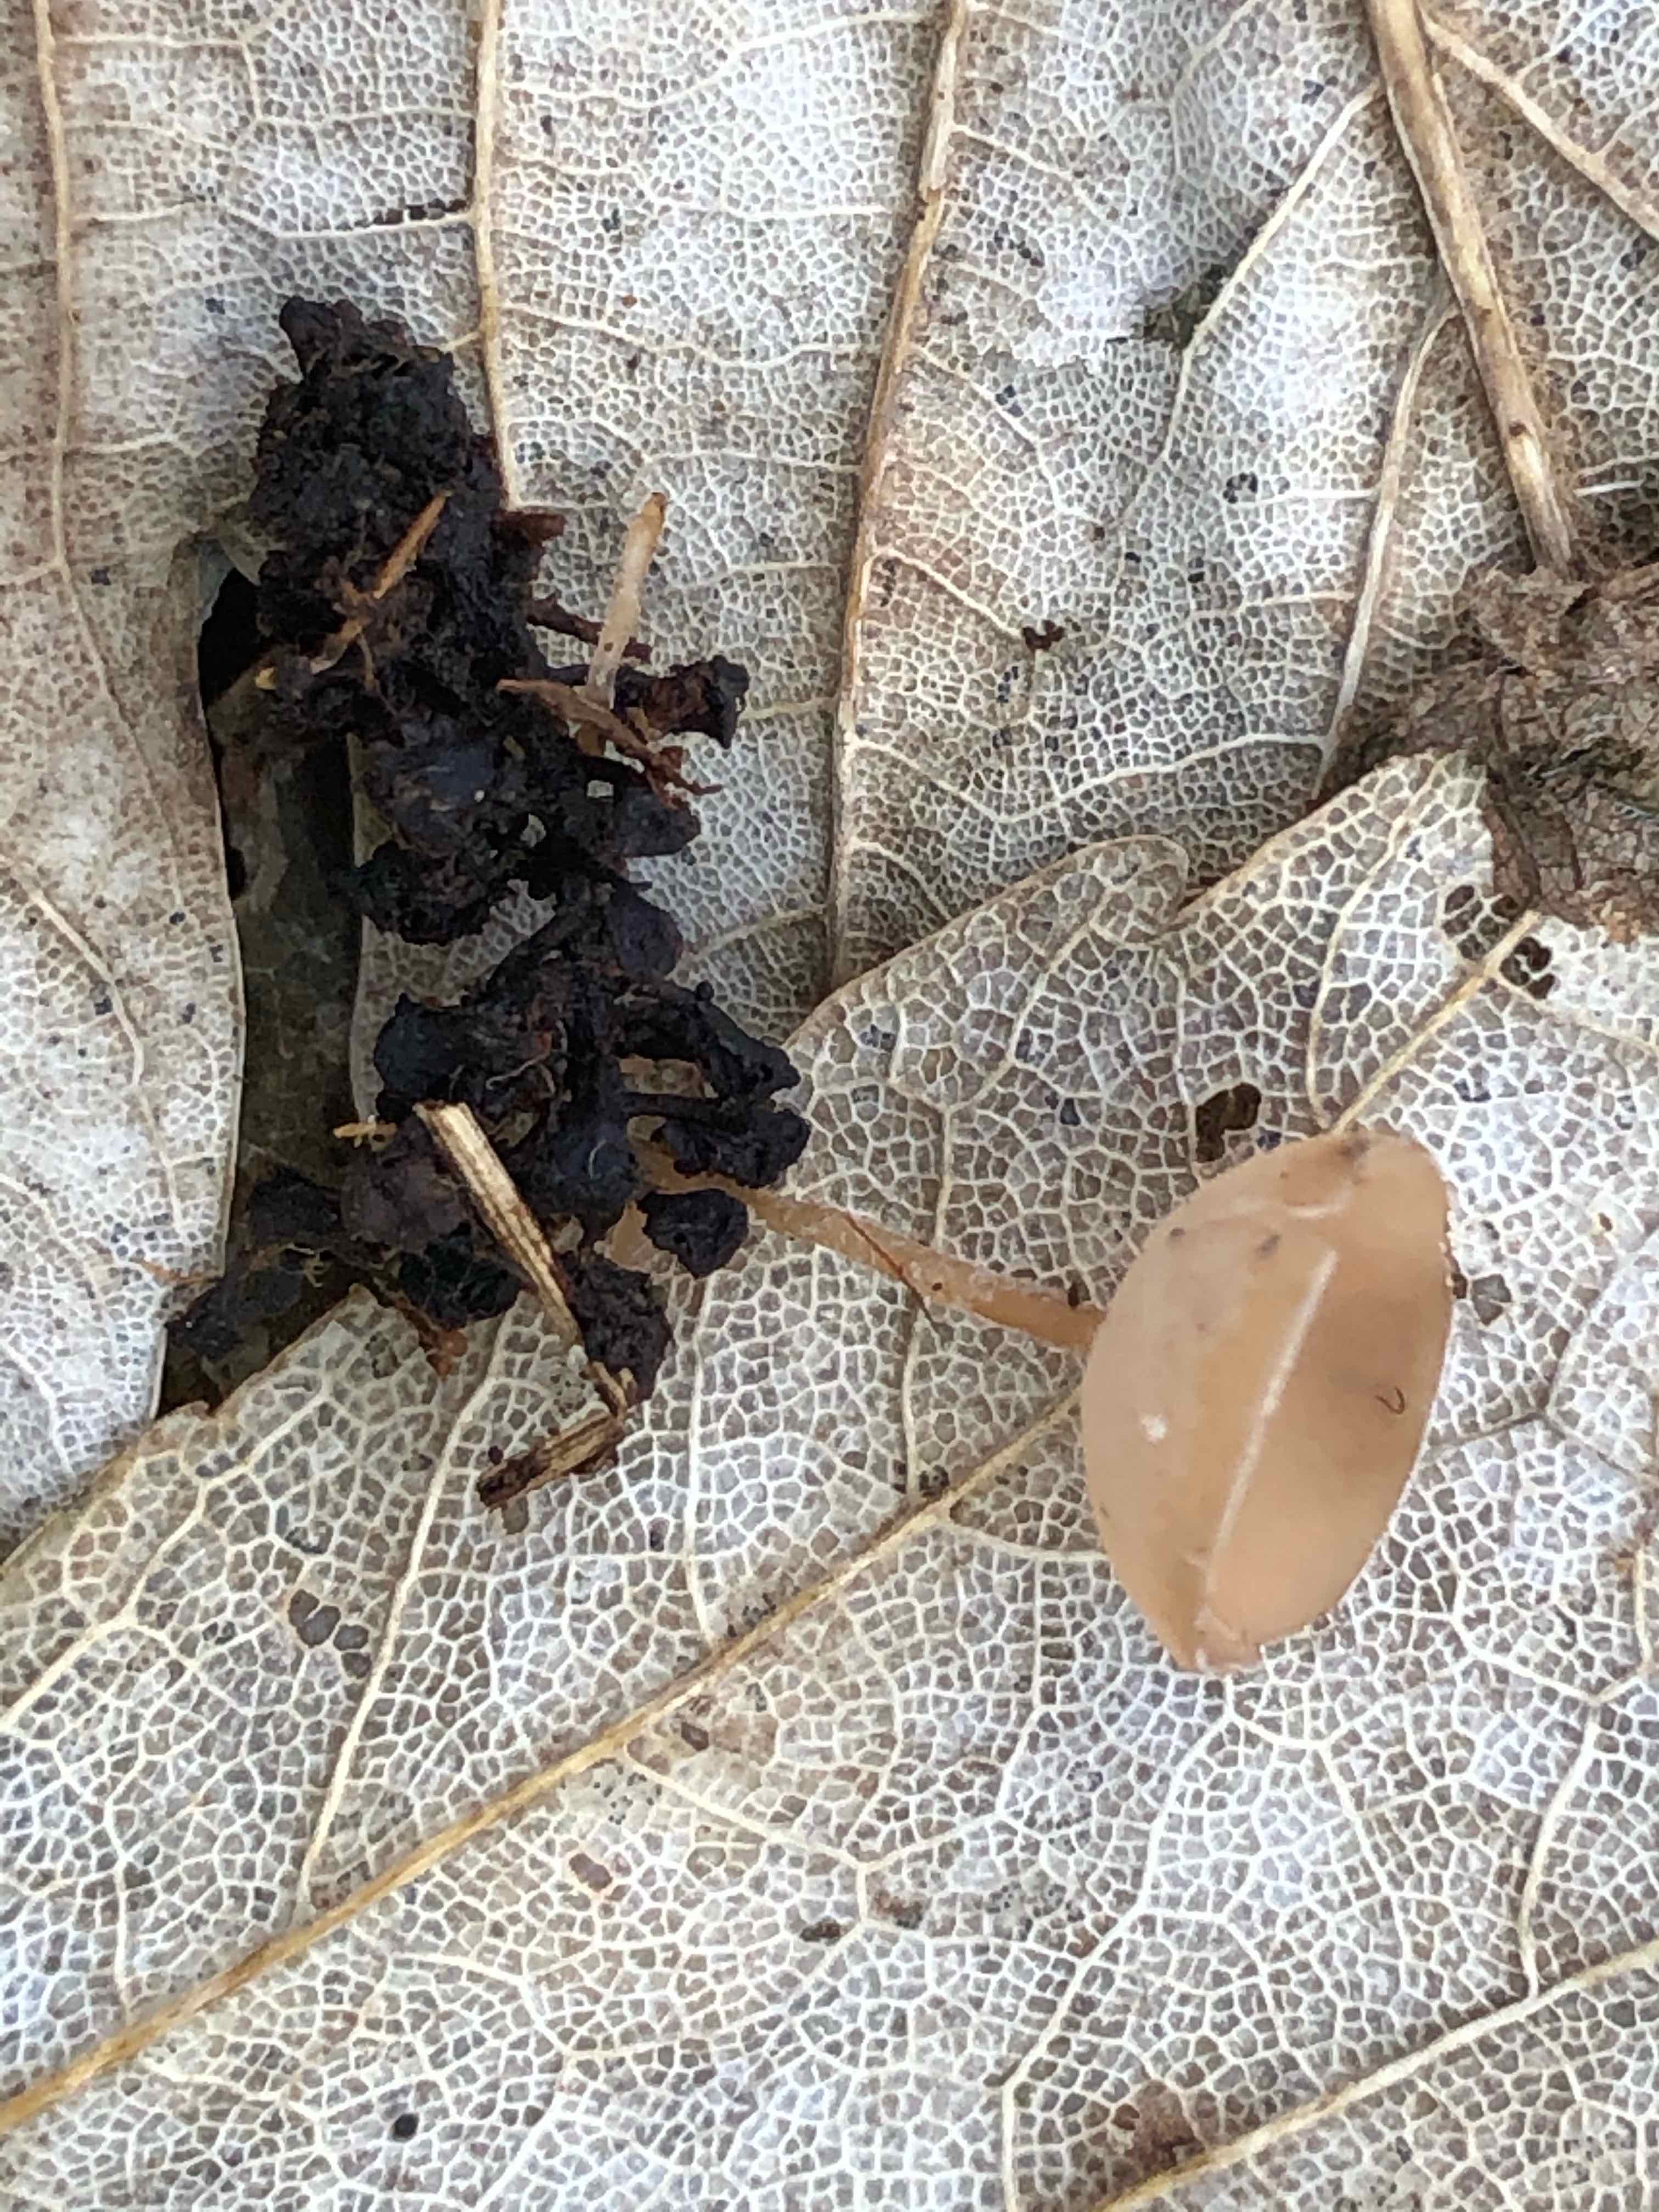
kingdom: Fungi
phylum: Ascomycota
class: Leotiomycetes
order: Helotiales
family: Sclerotiniaceae
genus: Ciboria
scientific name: Ciboria amentacea
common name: ellerakle-knoldskive
